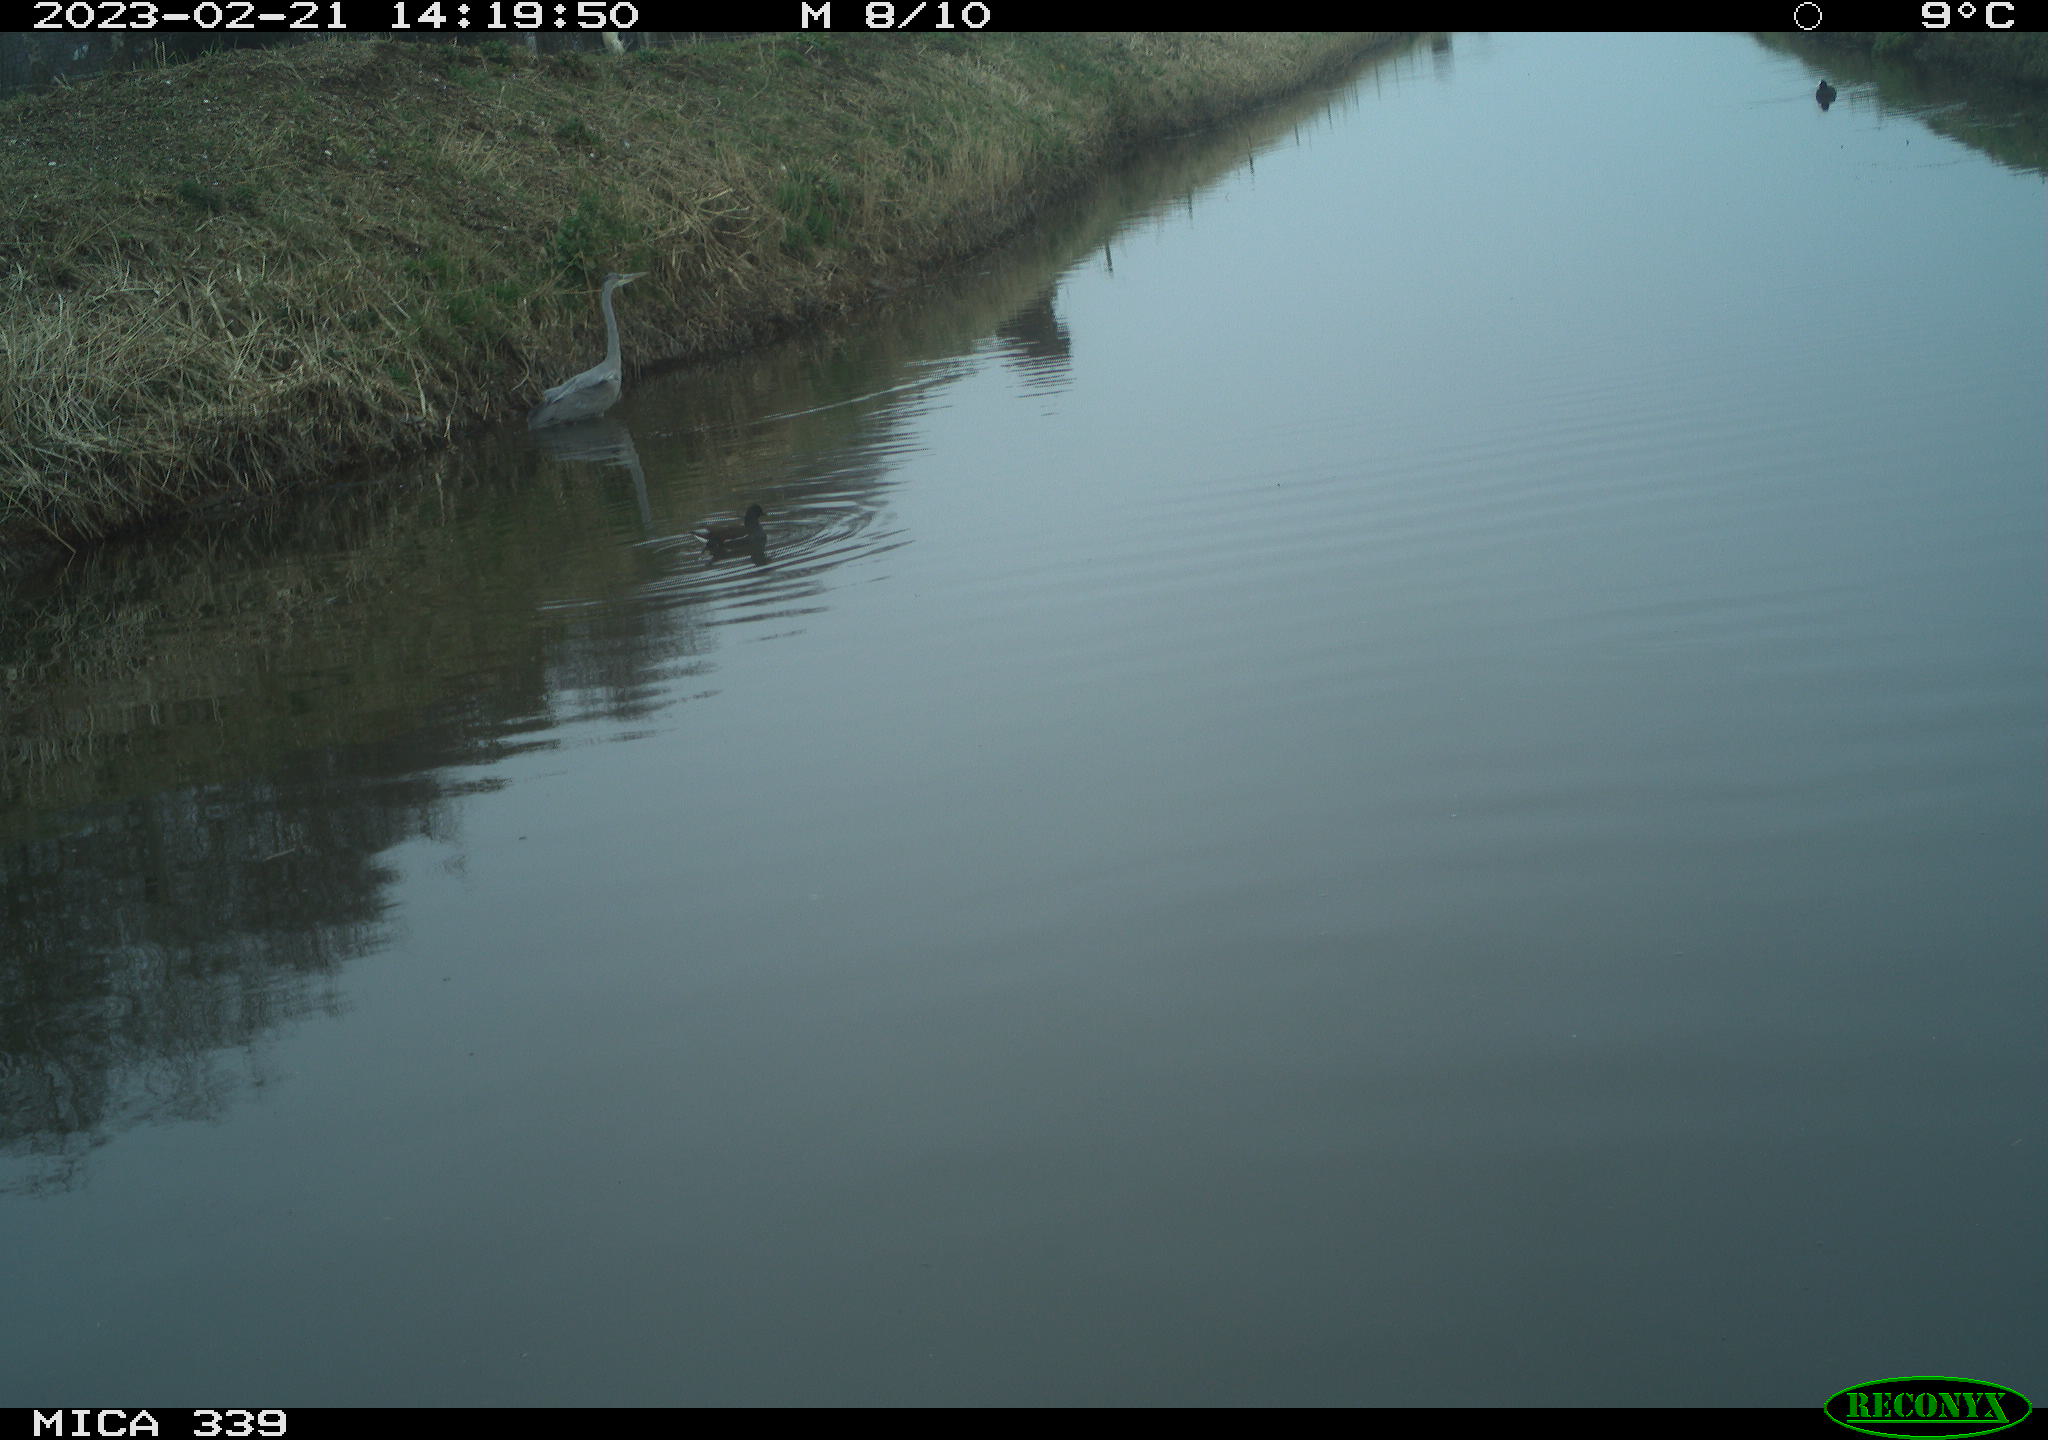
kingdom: Animalia
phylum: Chordata
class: Aves
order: Pelecaniformes
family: Ardeidae
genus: Ardea
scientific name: Ardea cinerea
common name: Grey heron
